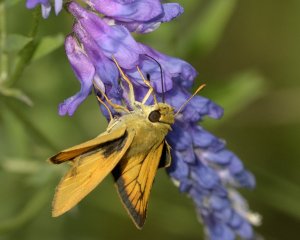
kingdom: Animalia
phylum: Arthropoda
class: Insecta
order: Lepidoptera
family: Hesperiidae
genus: Atrytone
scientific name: Atrytone delaware
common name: Delaware Skipper
